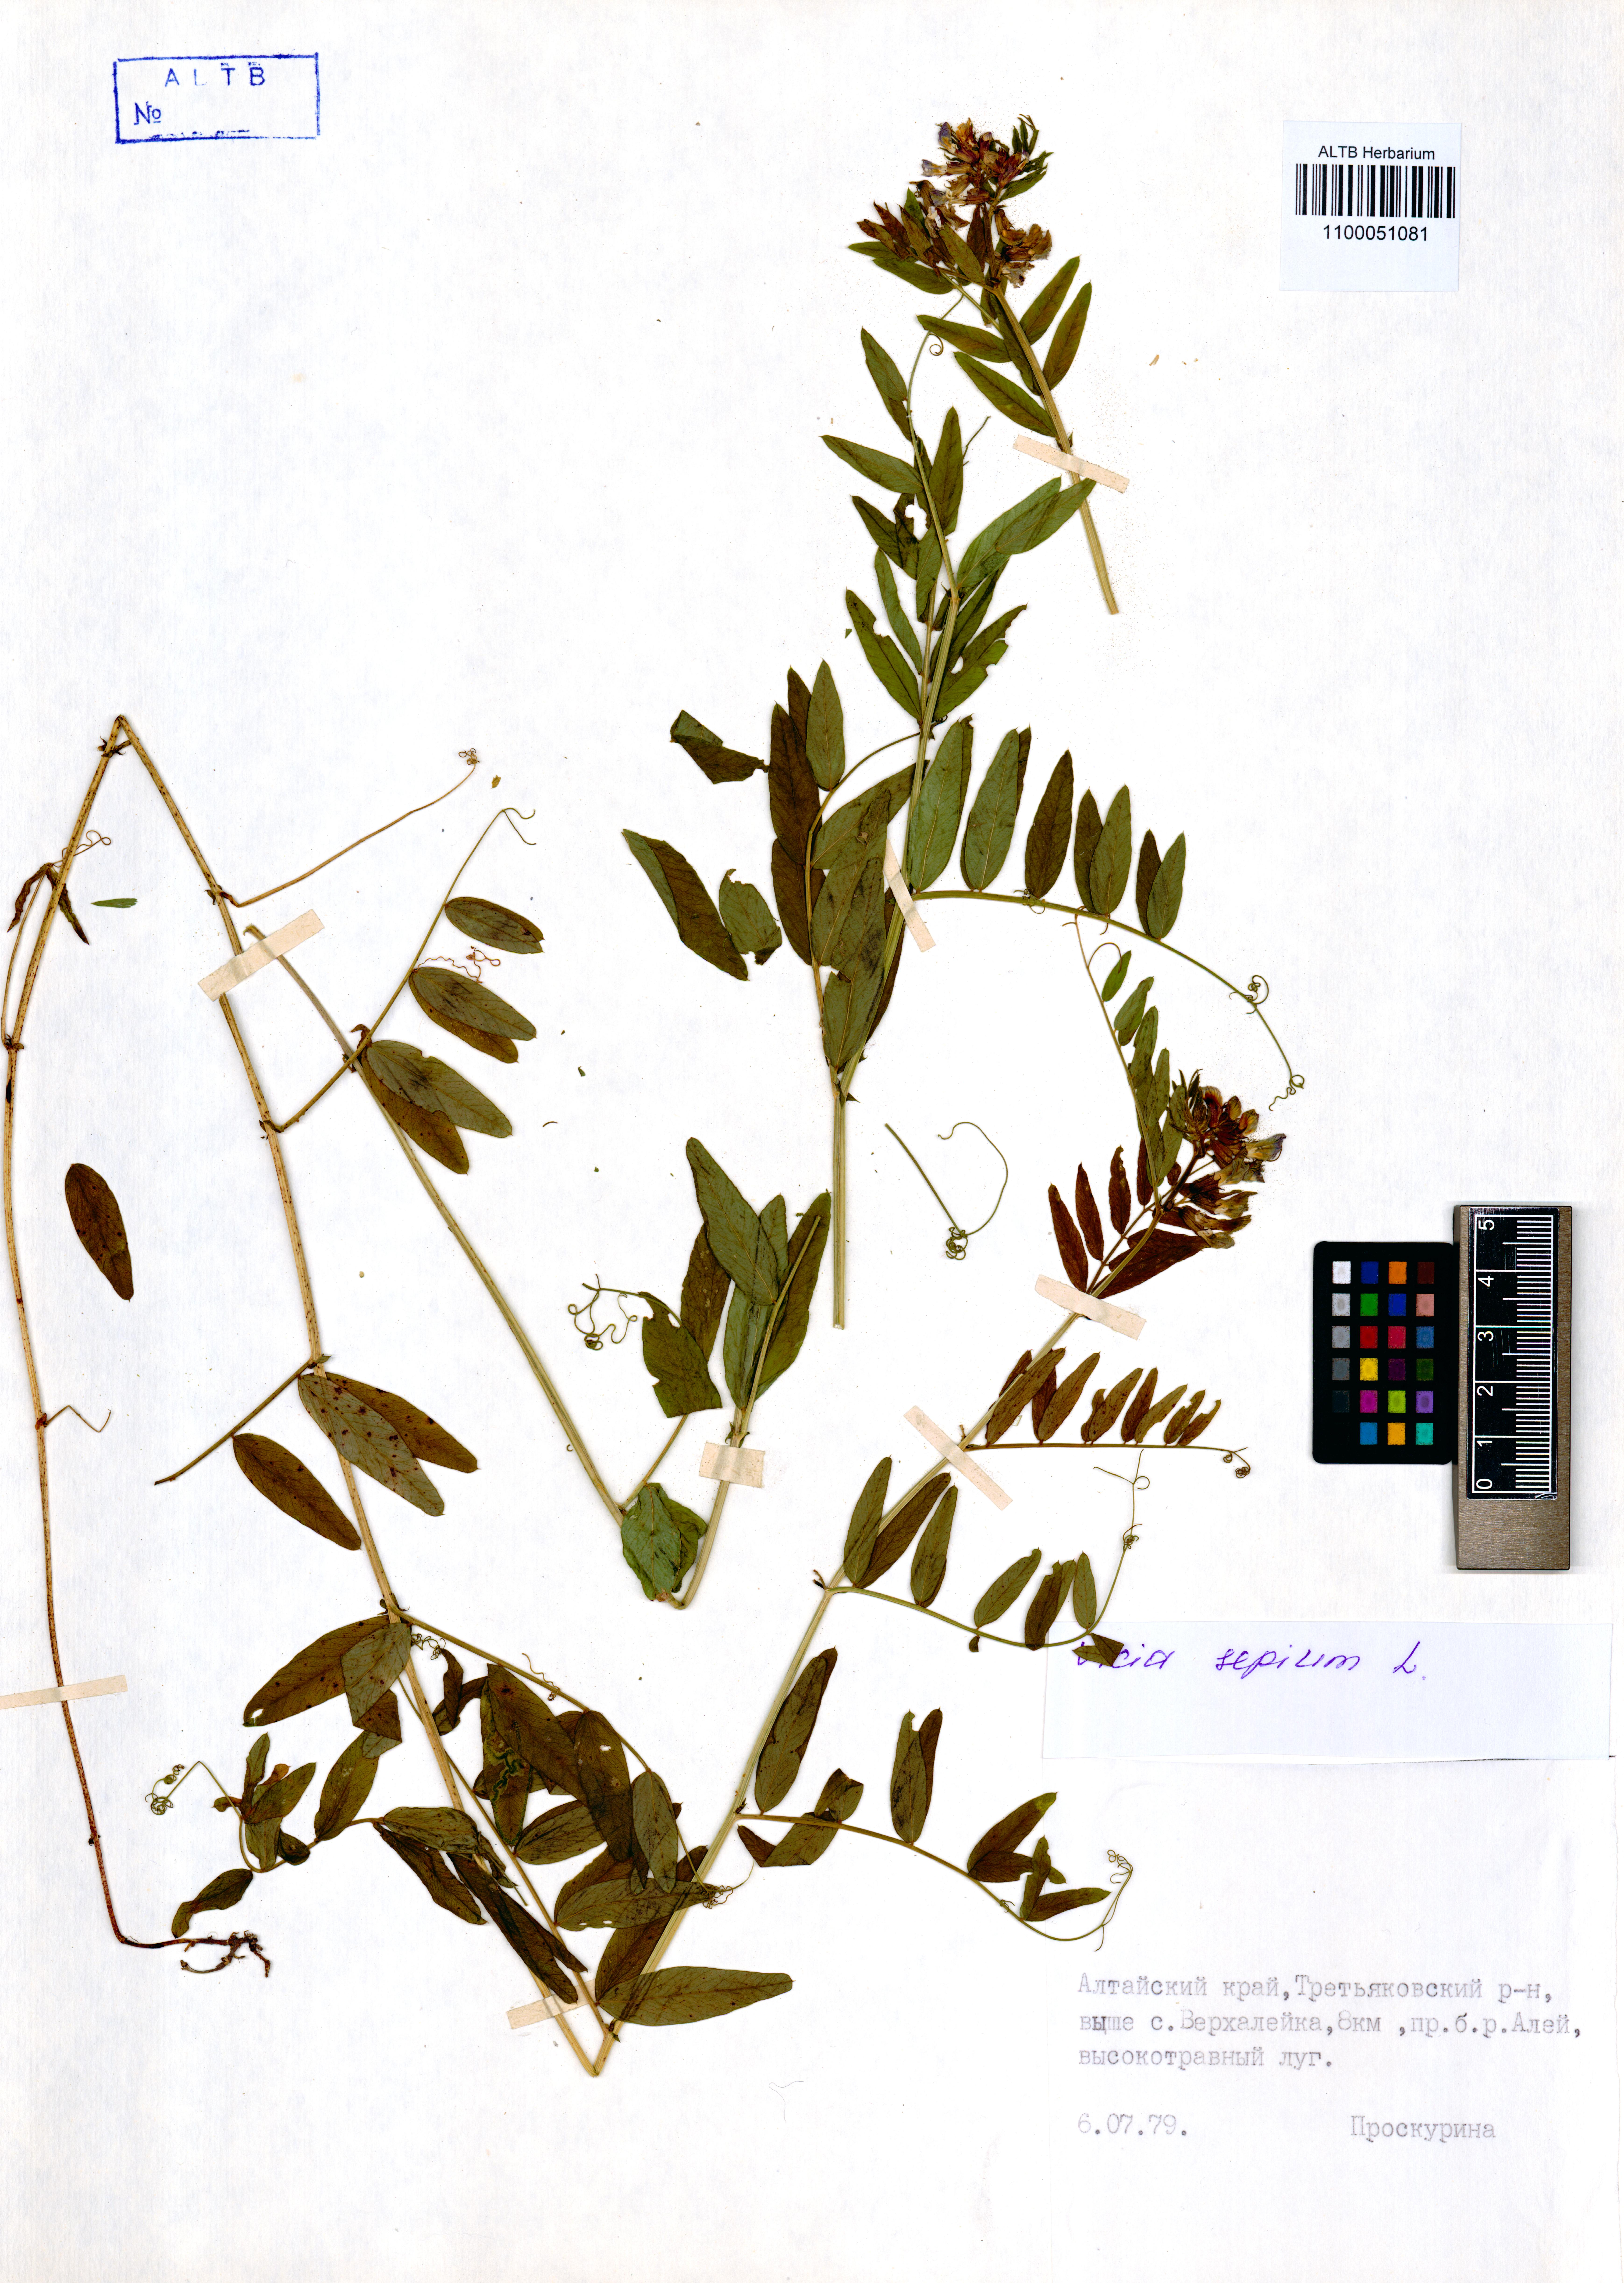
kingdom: Plantae
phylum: Tracheophyta
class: Magnoliopsida
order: Fabales
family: Fabaceae
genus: Vicia
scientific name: Vicia sepium
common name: Bush vetch
